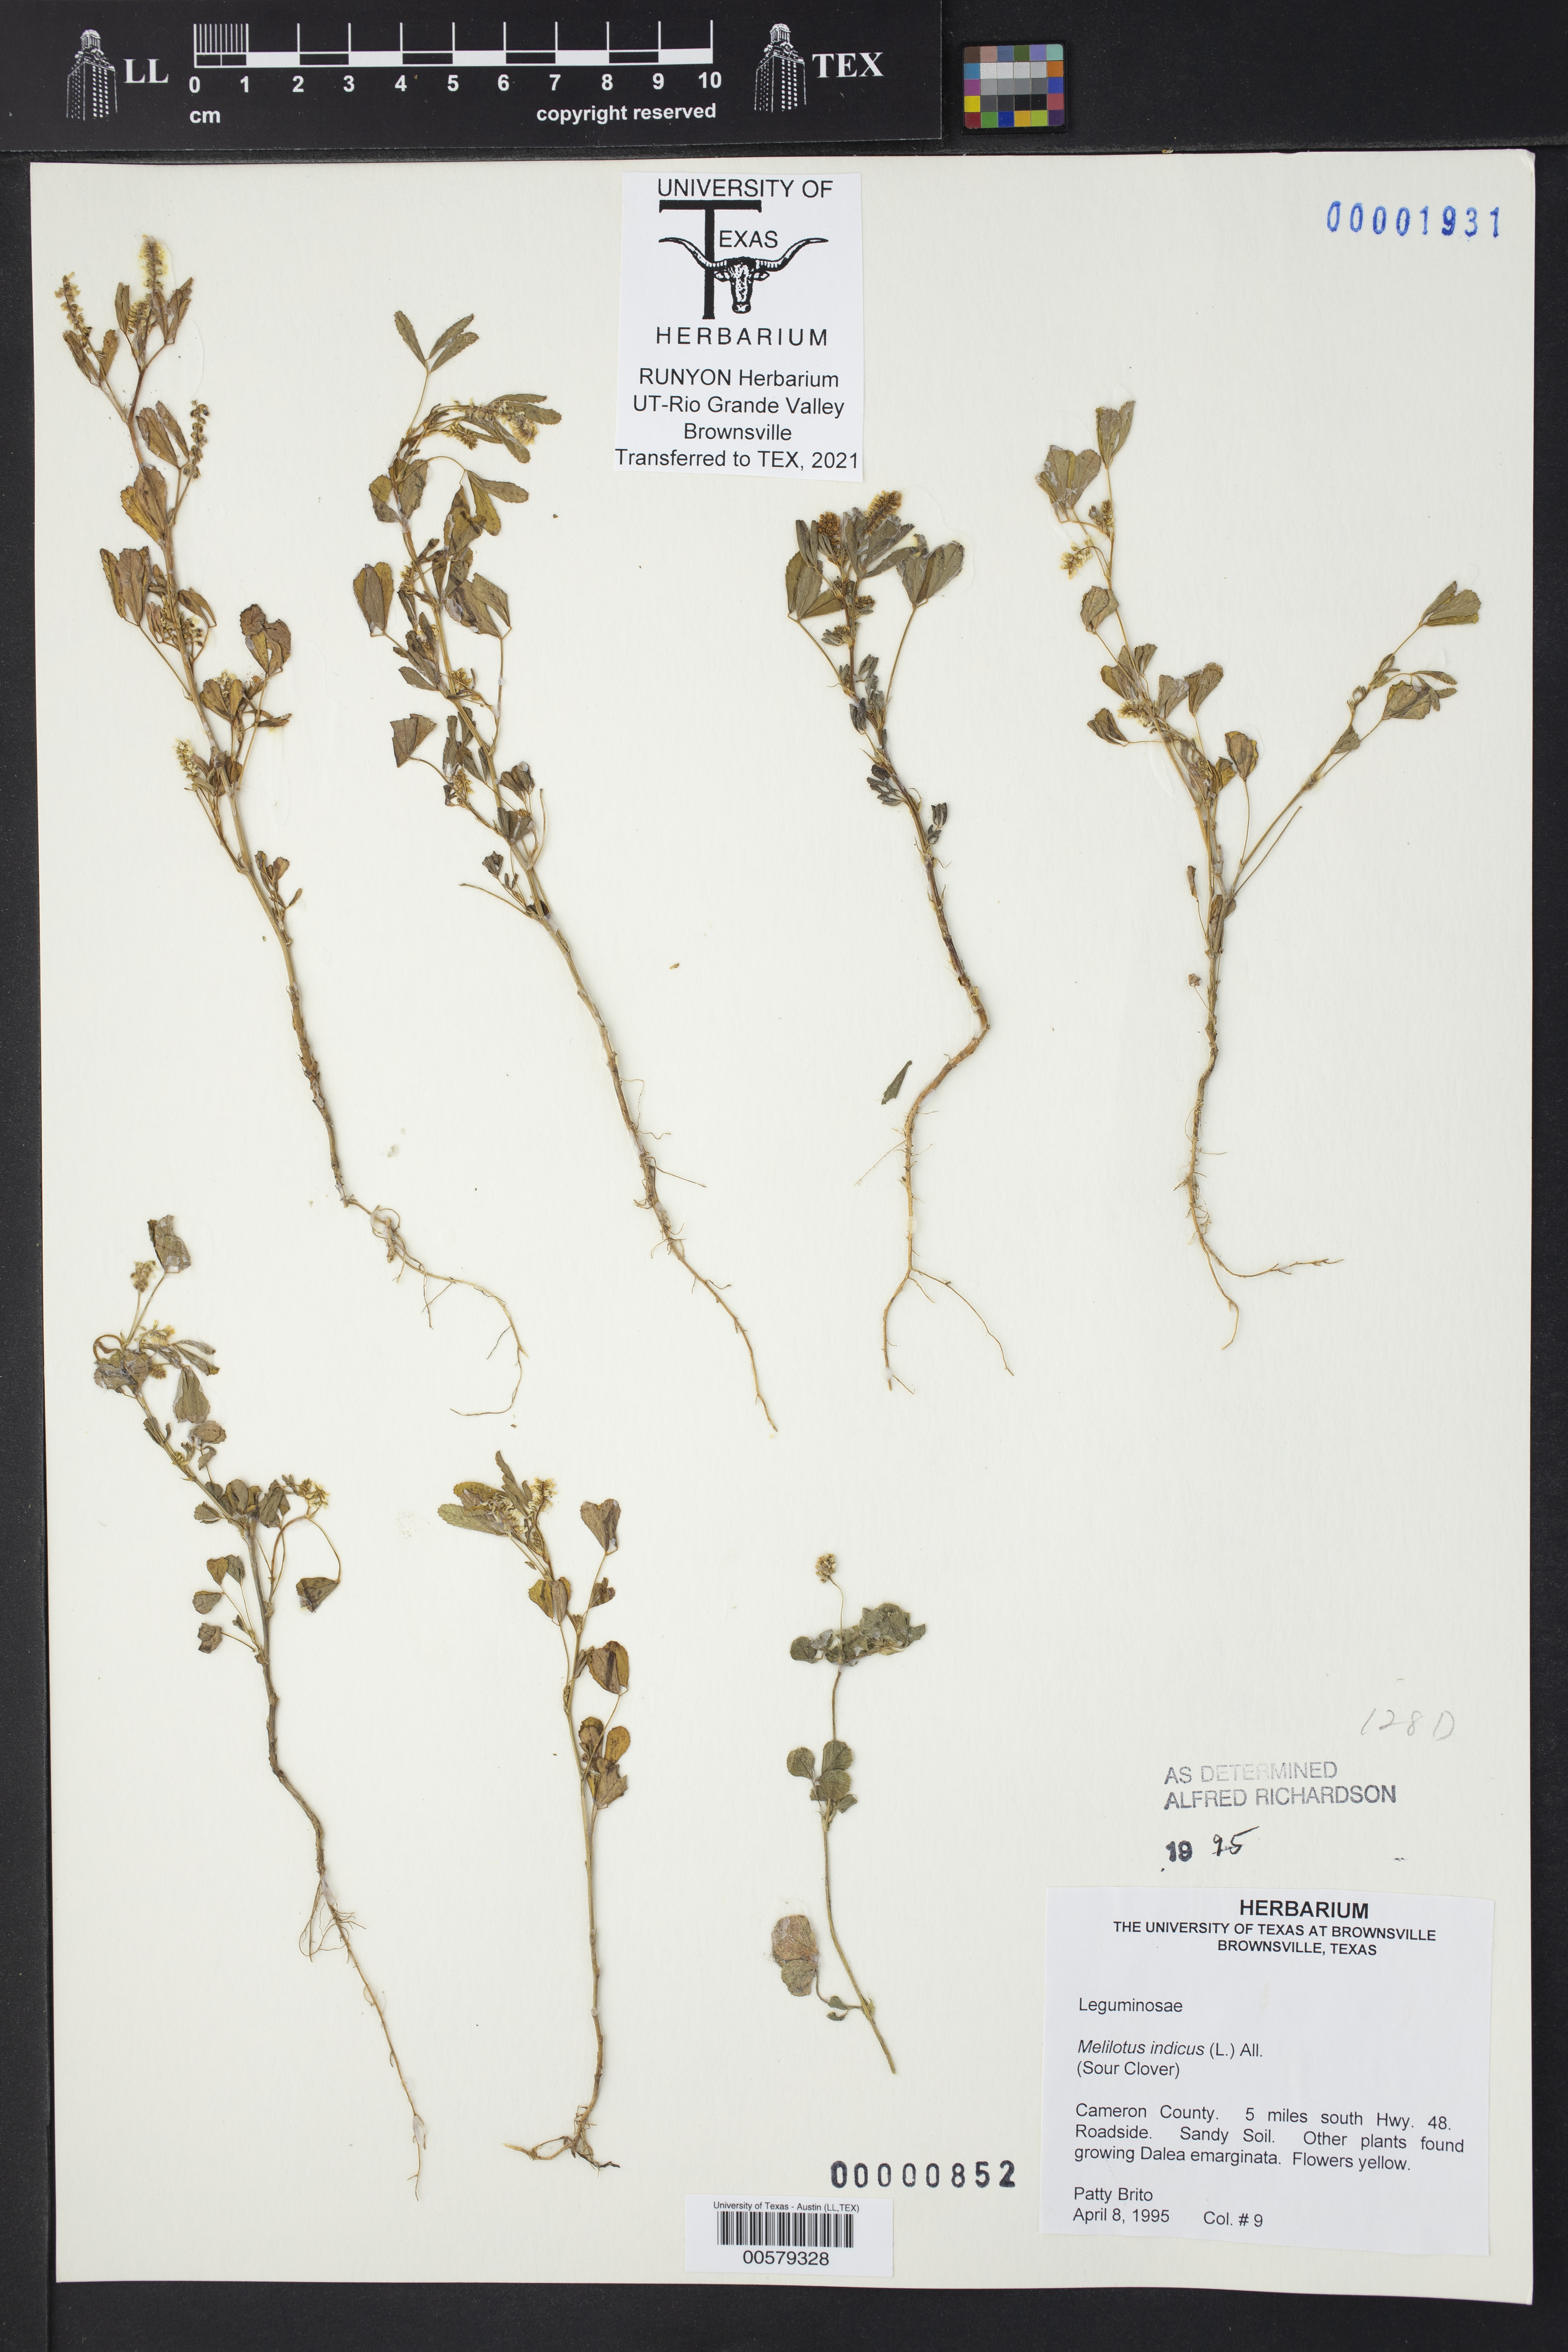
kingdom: Plantae
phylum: Tracheophyta
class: Magnoliopsida
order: Fabales
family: Fabaceae
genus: Melilotus
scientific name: Melilotus indicus
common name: Small melilot
